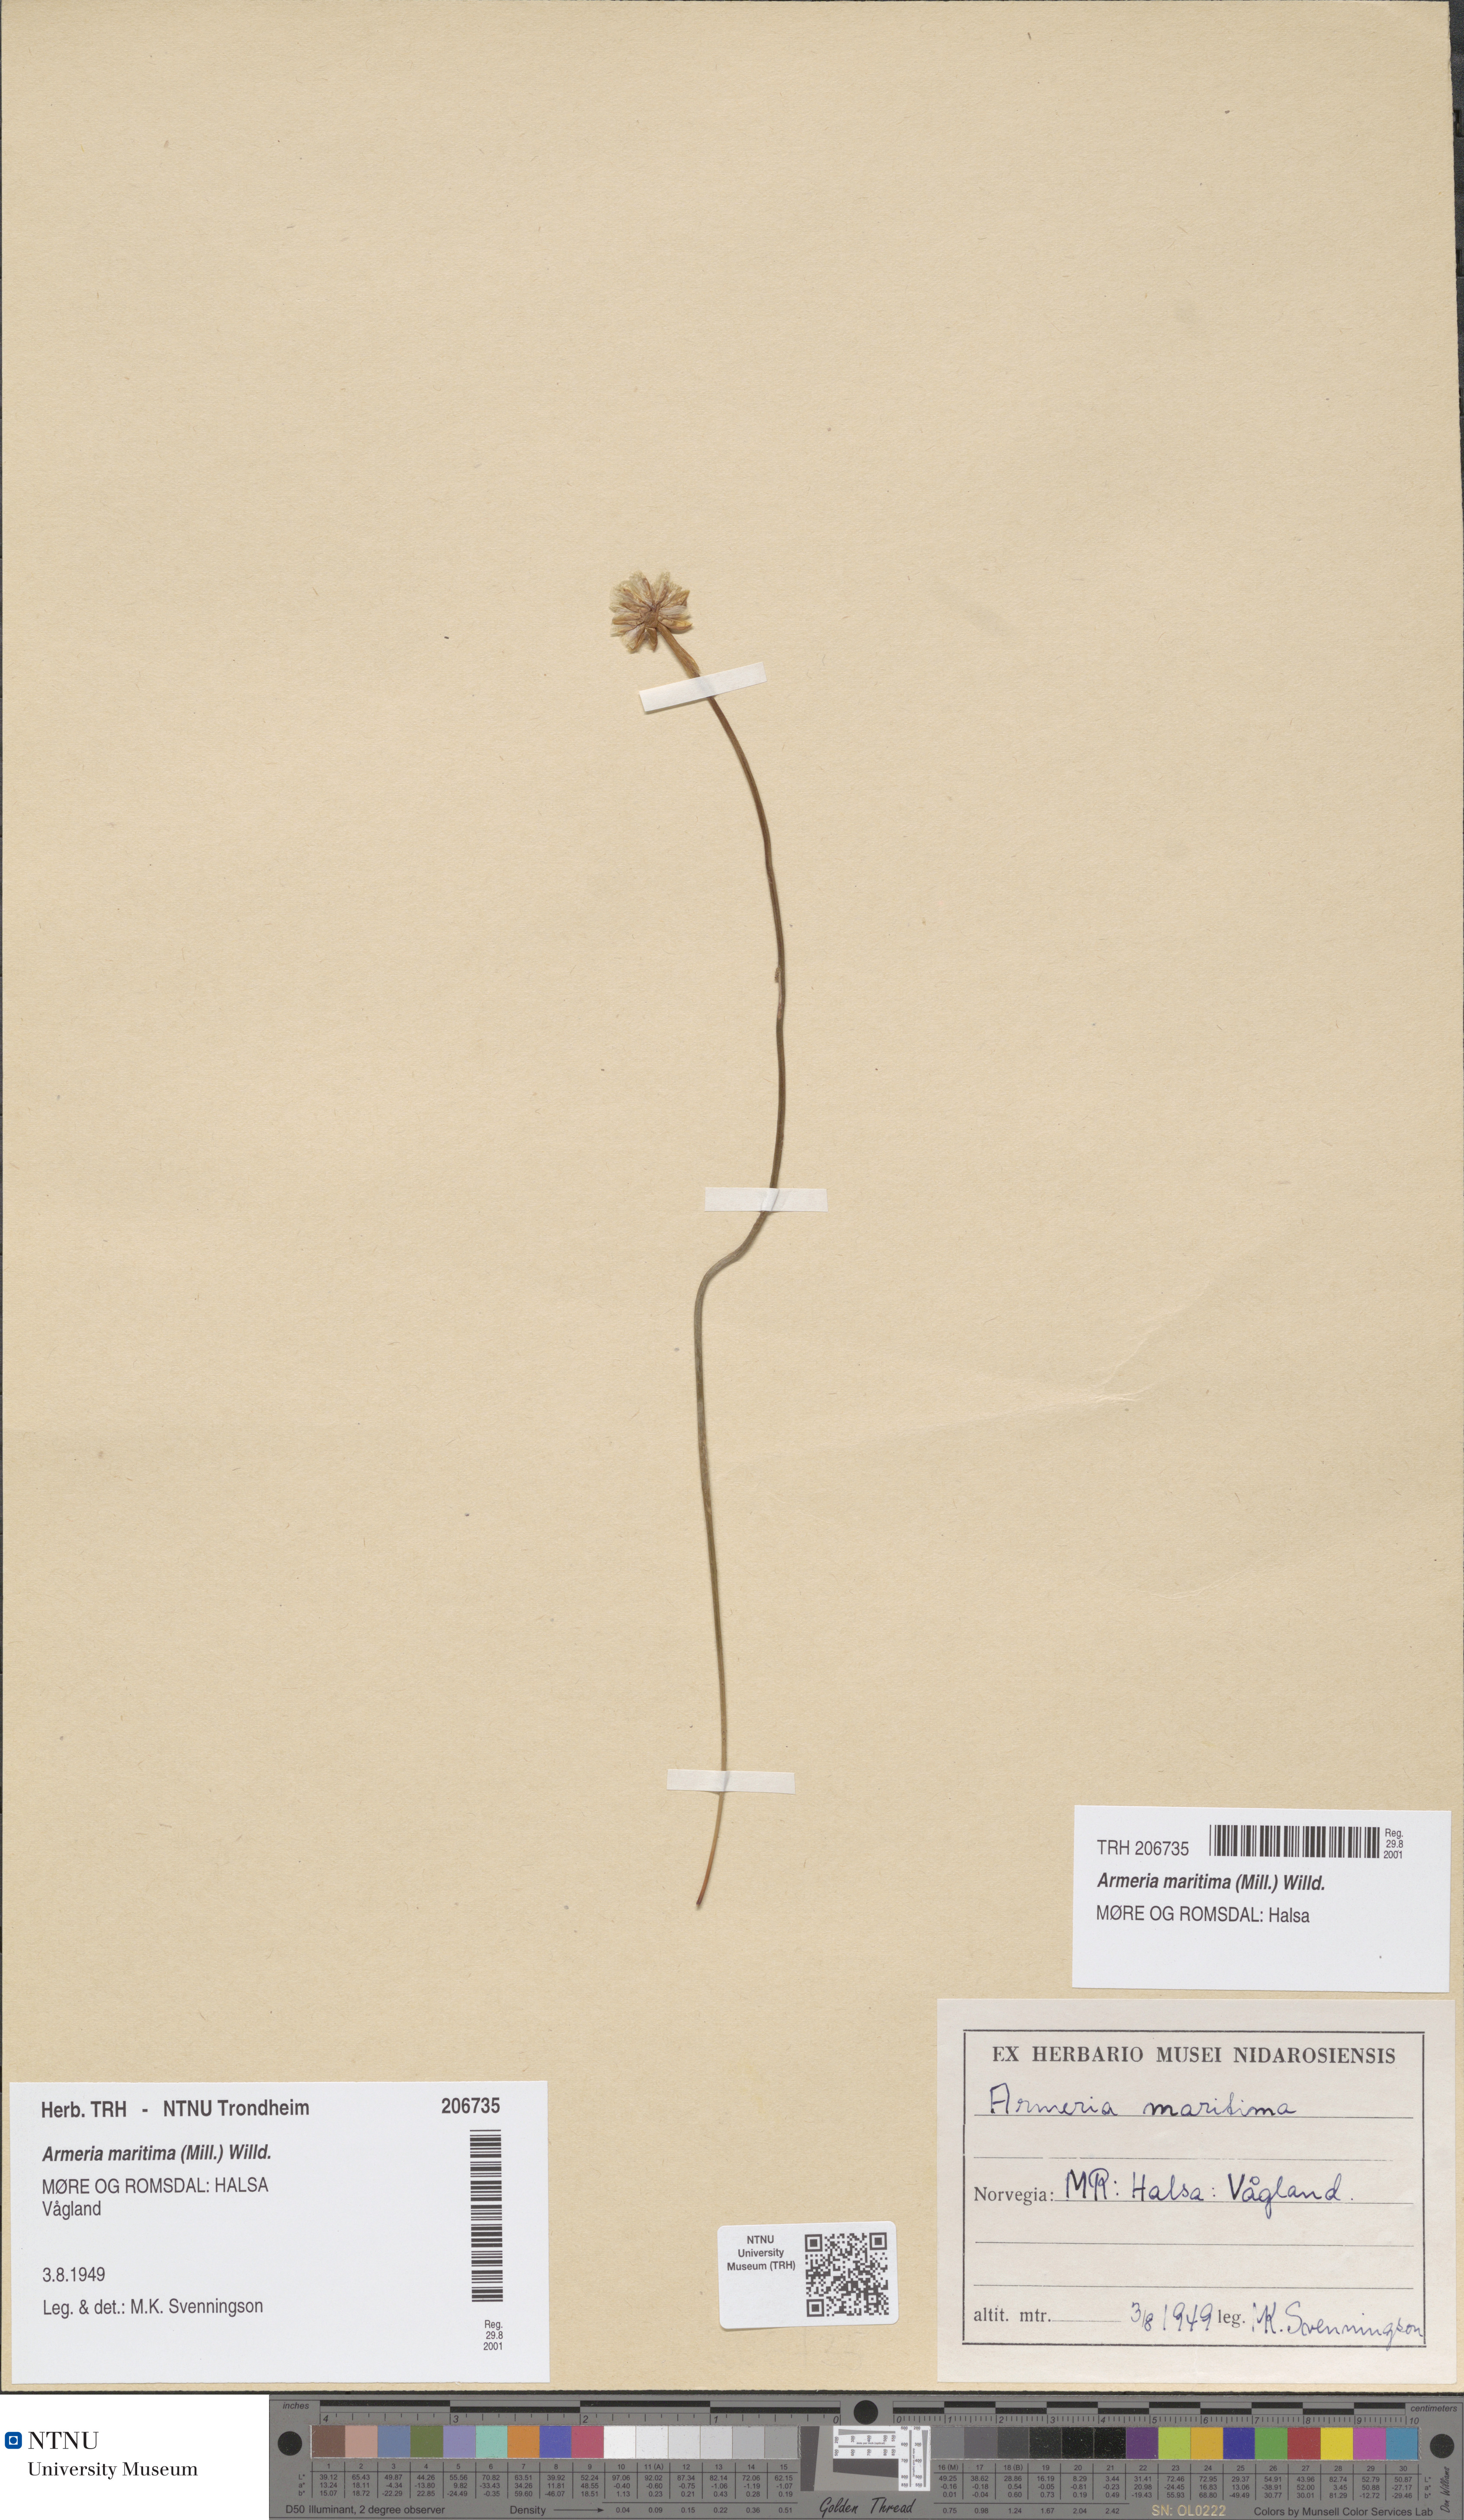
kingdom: Plantae
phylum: Tracheophyta
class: Magnoliopsida
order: Caryophyllales
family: Plumbaginaceae
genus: Armeria
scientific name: Armeria maritima
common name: Thrift
